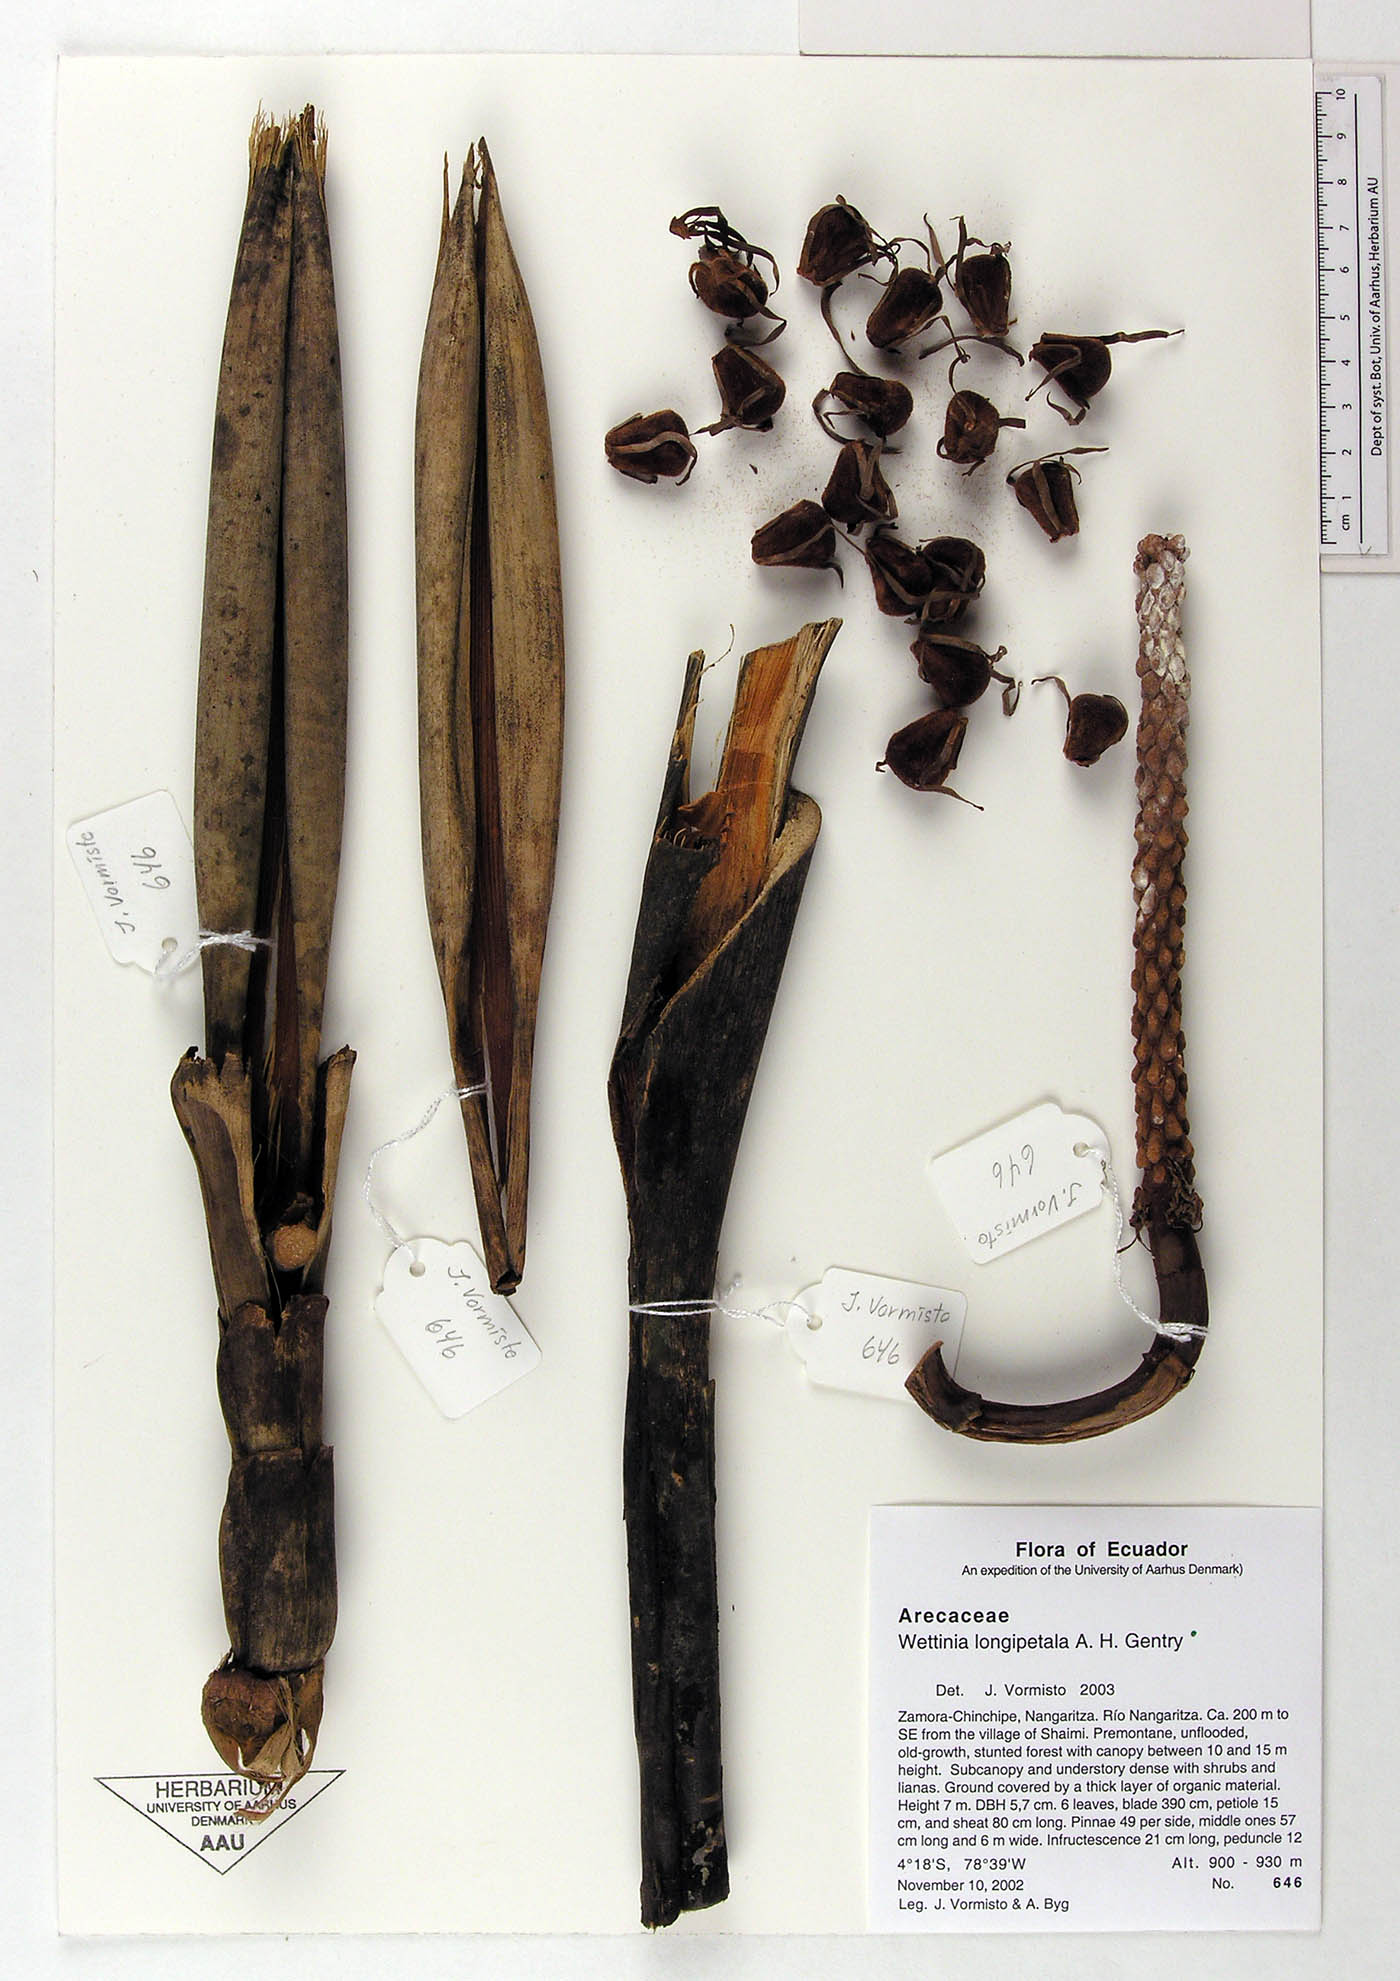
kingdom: Plantae
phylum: Tracheophyta
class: Liliopsida
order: Arecales
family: Arecaceae
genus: Wettinia
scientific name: Wettinia longipetala
